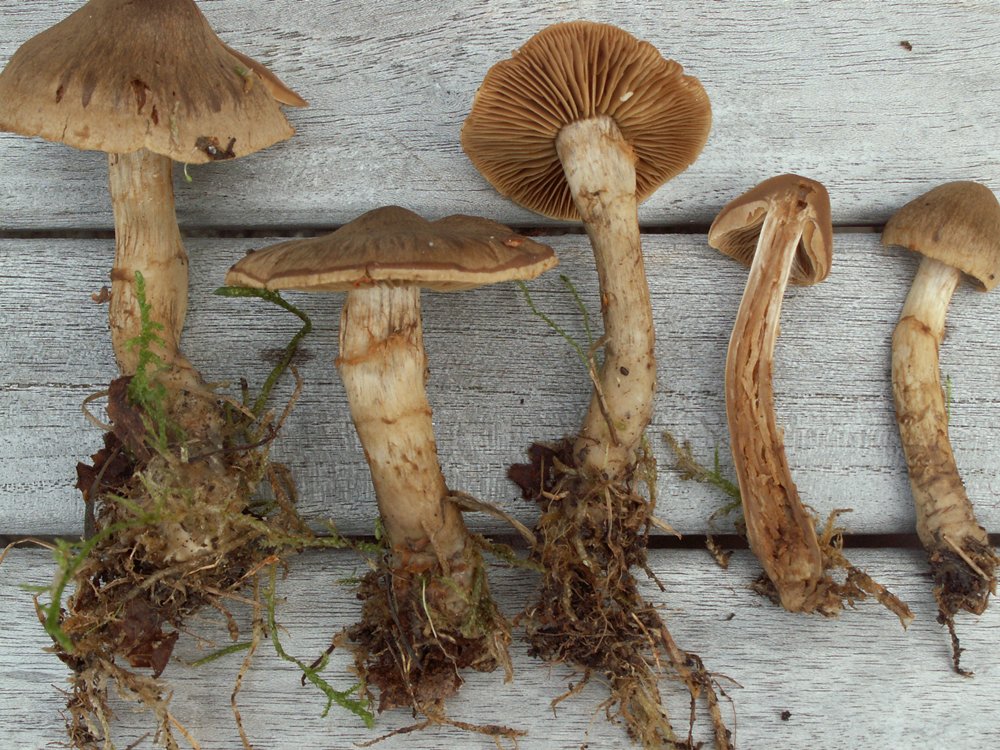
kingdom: Fungi
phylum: Basidiomycota
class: Agaricomycetes
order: Agaricales
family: Cortinariaceae
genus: Cortinarius
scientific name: Cortinarius raphanoides
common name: ræddike-slørhat
